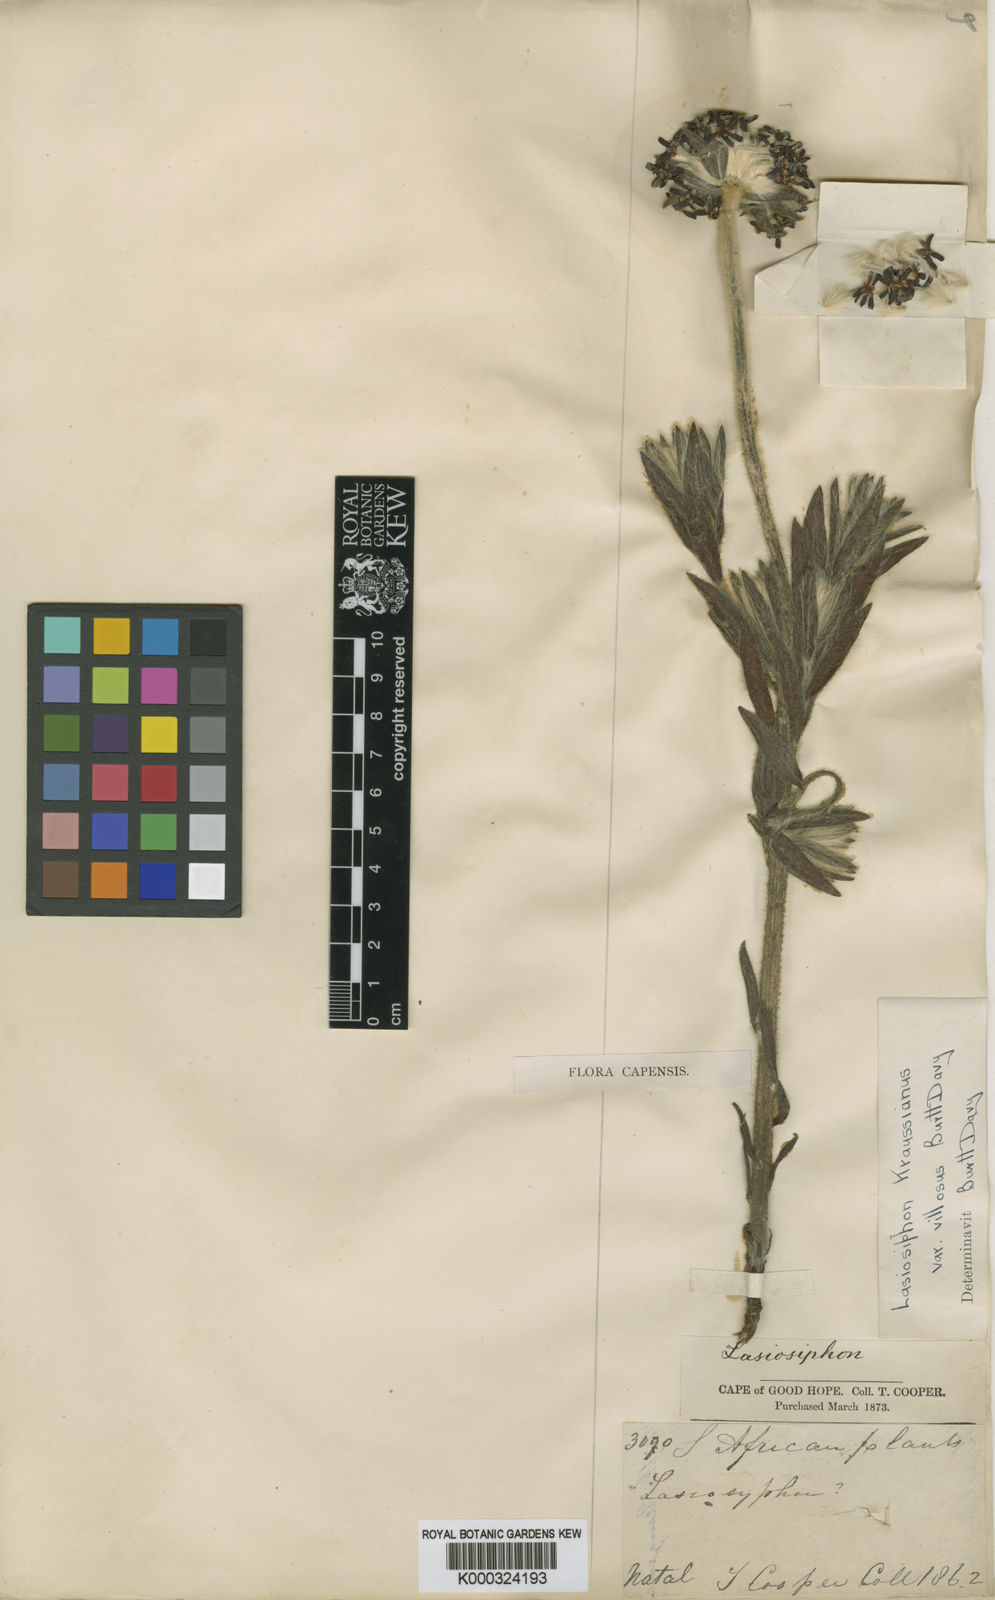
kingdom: Plantae
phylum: Tracheophyta
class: Magnoliopsida
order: Malvales
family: Thymelaeaceae
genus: Lasiosiphon
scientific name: Lasiosiphon
